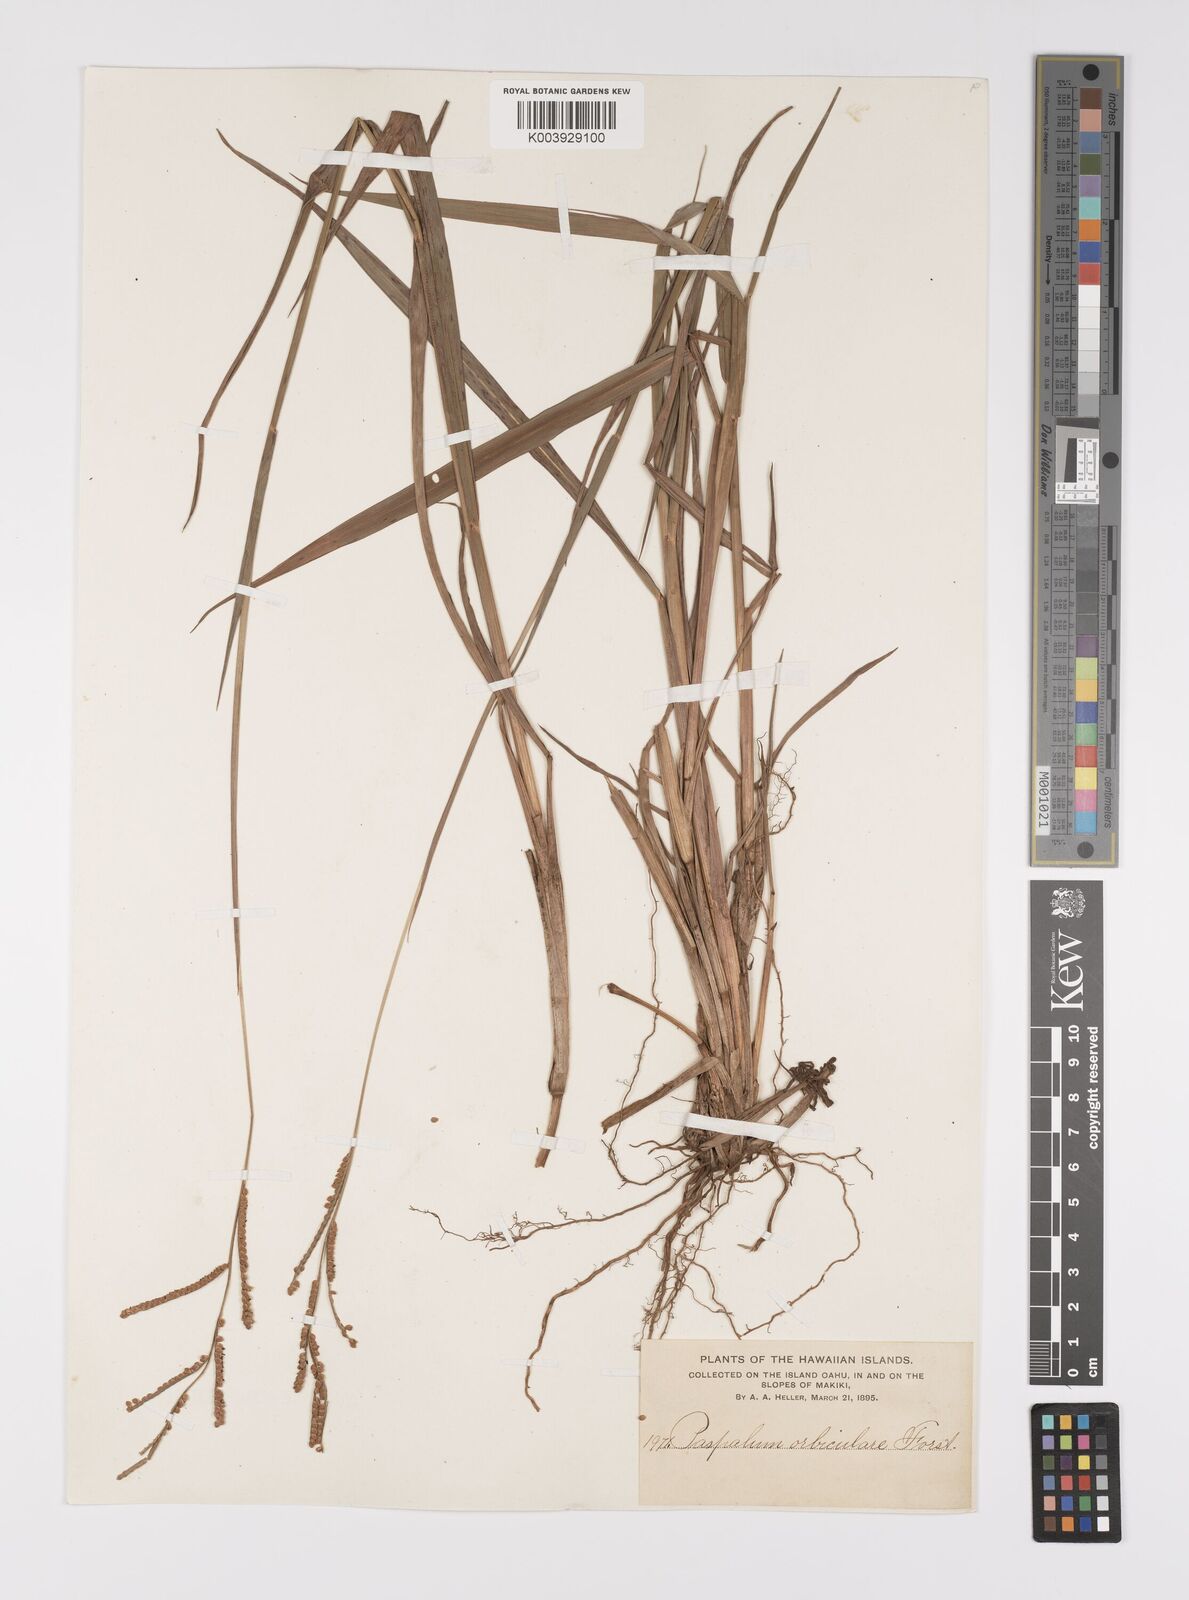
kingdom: Plantae
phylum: Tracheophyta
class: Liliopsida
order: Poales
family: Poaceae
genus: Paspalum
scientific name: Paspalum scrobiculatum
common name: Kodo millet
